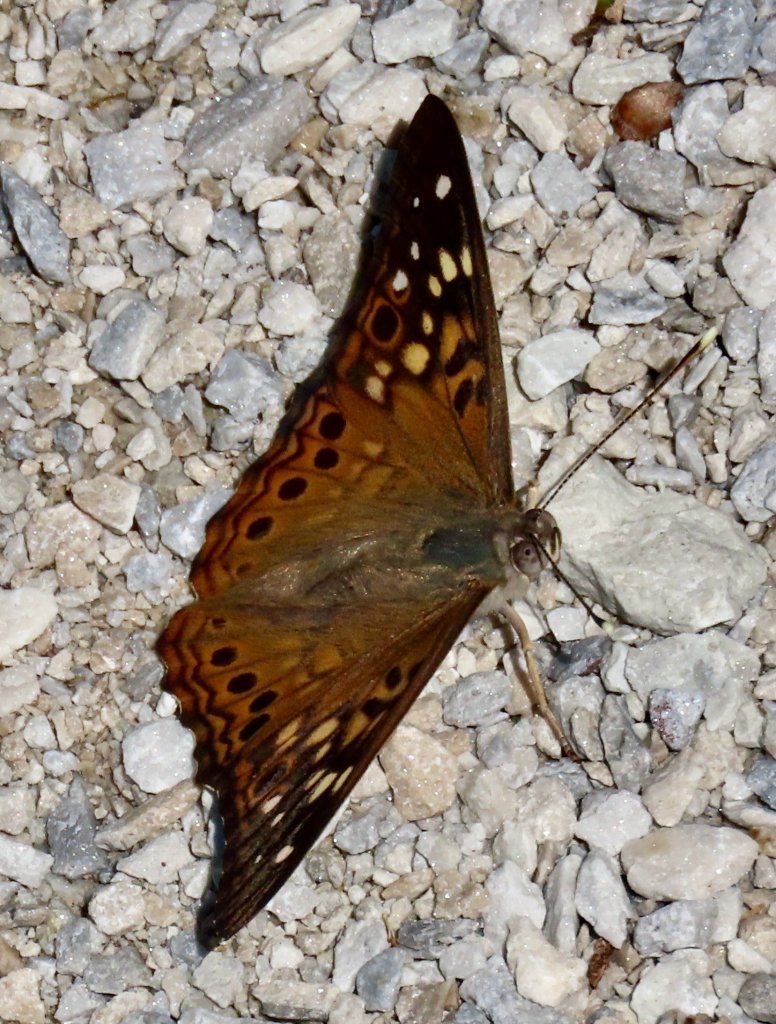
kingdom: Animalia
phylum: Arthropoda
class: Insecta
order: Lepidoptera
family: Nymphalidae
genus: Asterocampa
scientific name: Asterocampa celtis
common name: Hackberry Emperor
